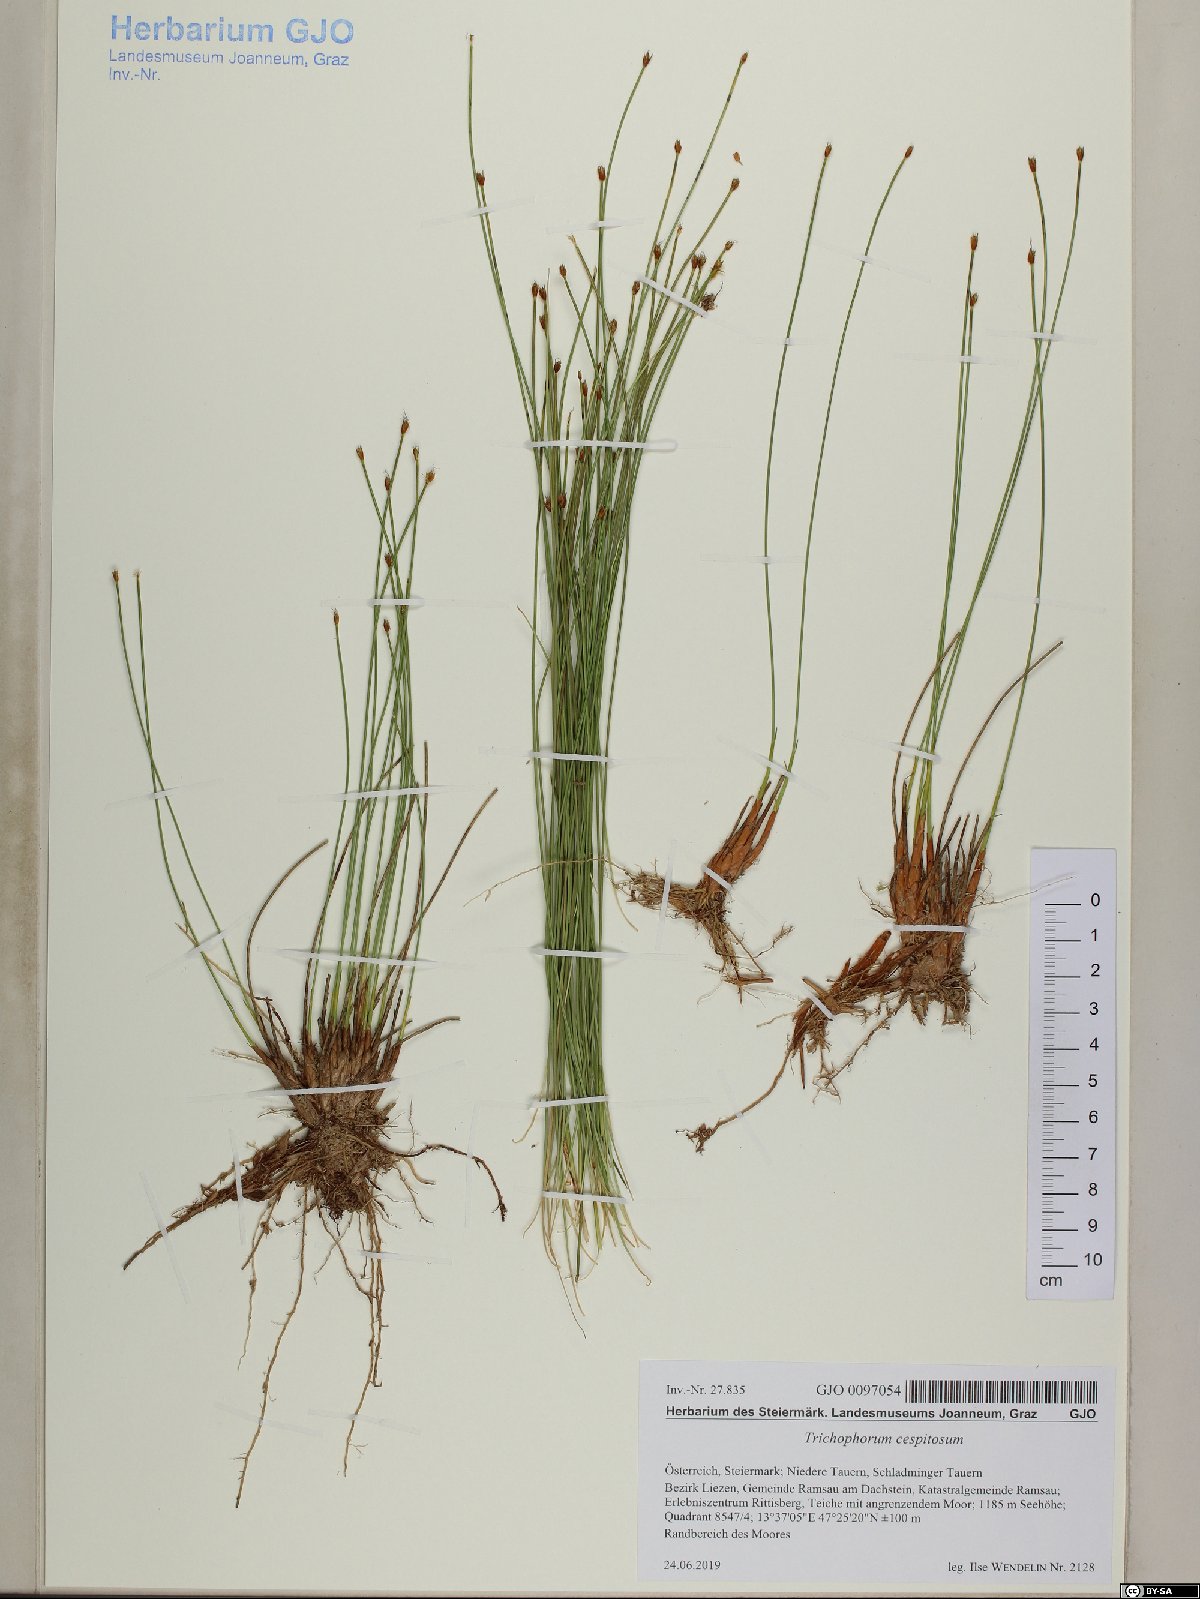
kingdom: Plantae
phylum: Tracheophyta
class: Liliopsida
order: Poales
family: Cyperaceae
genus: Trichophorum
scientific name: Trichophorum cespitosum
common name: Cespitose bulrush
